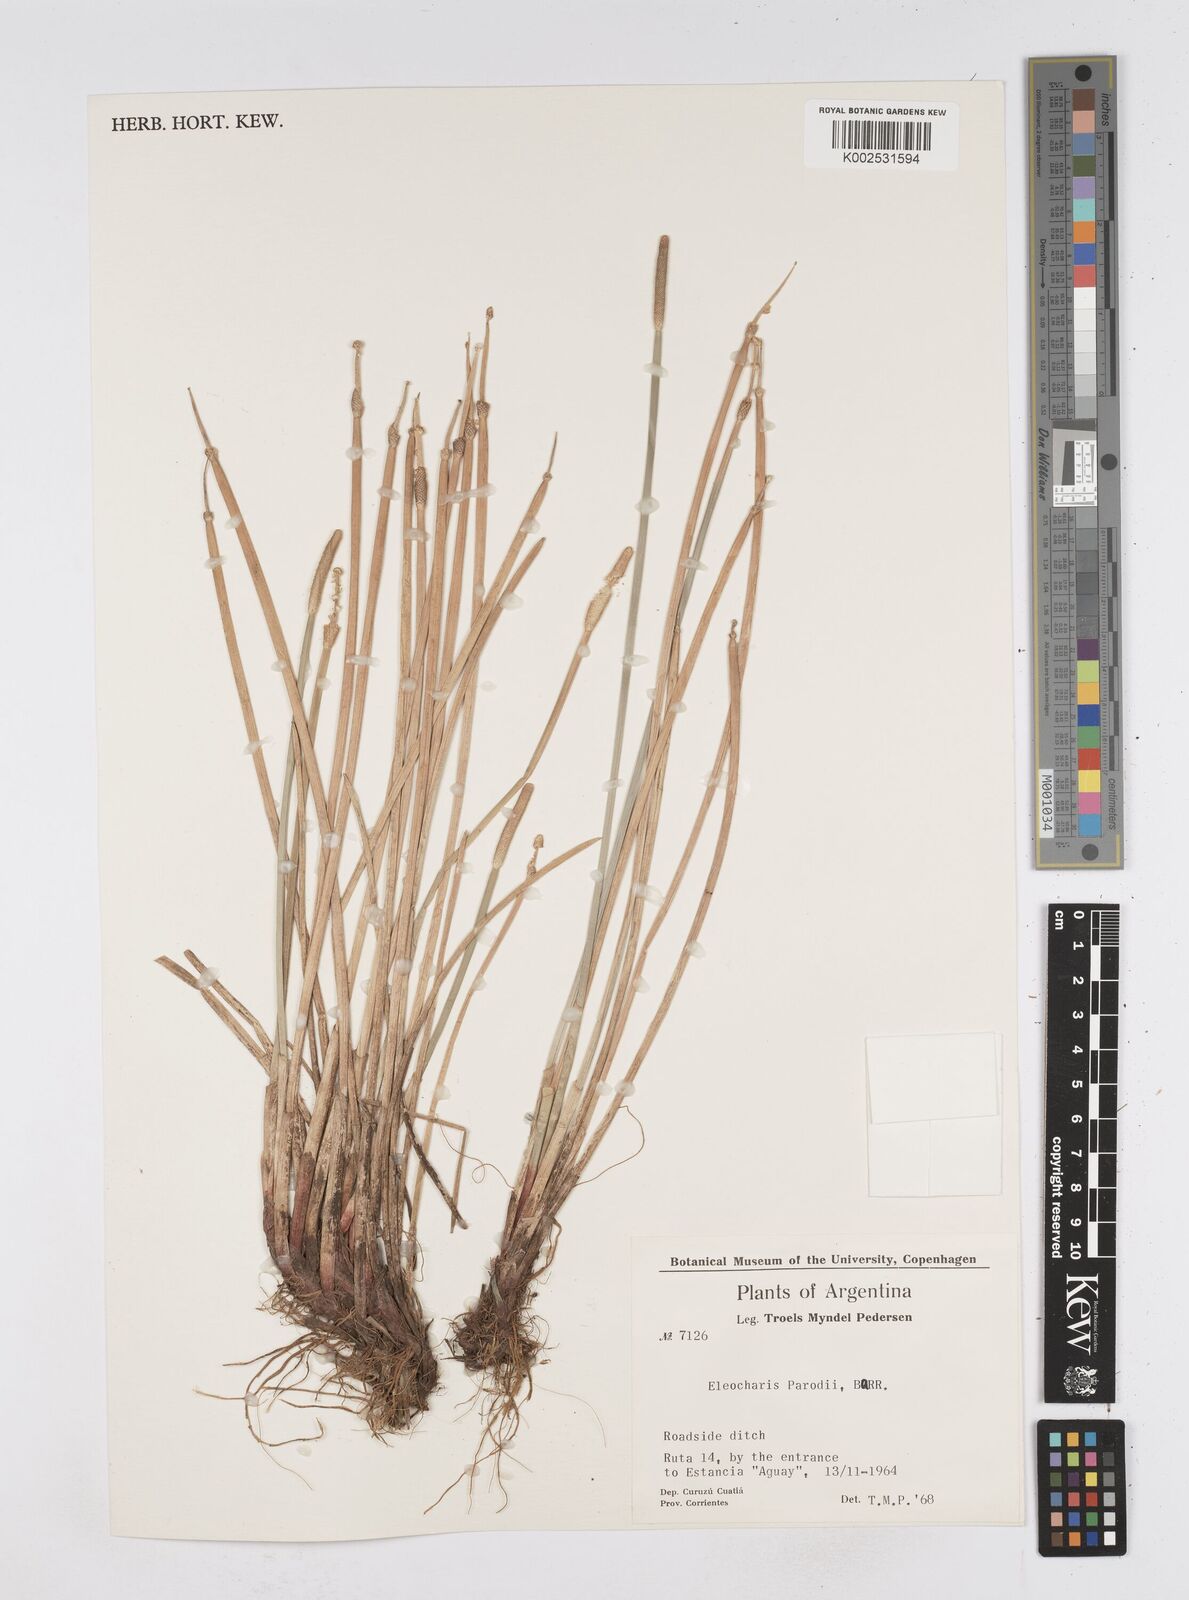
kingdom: Plantae
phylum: Tracheophyta
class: Liliopsida
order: Poales
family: Cyperaceae
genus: Eleocharis
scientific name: Eleocharis parodii
